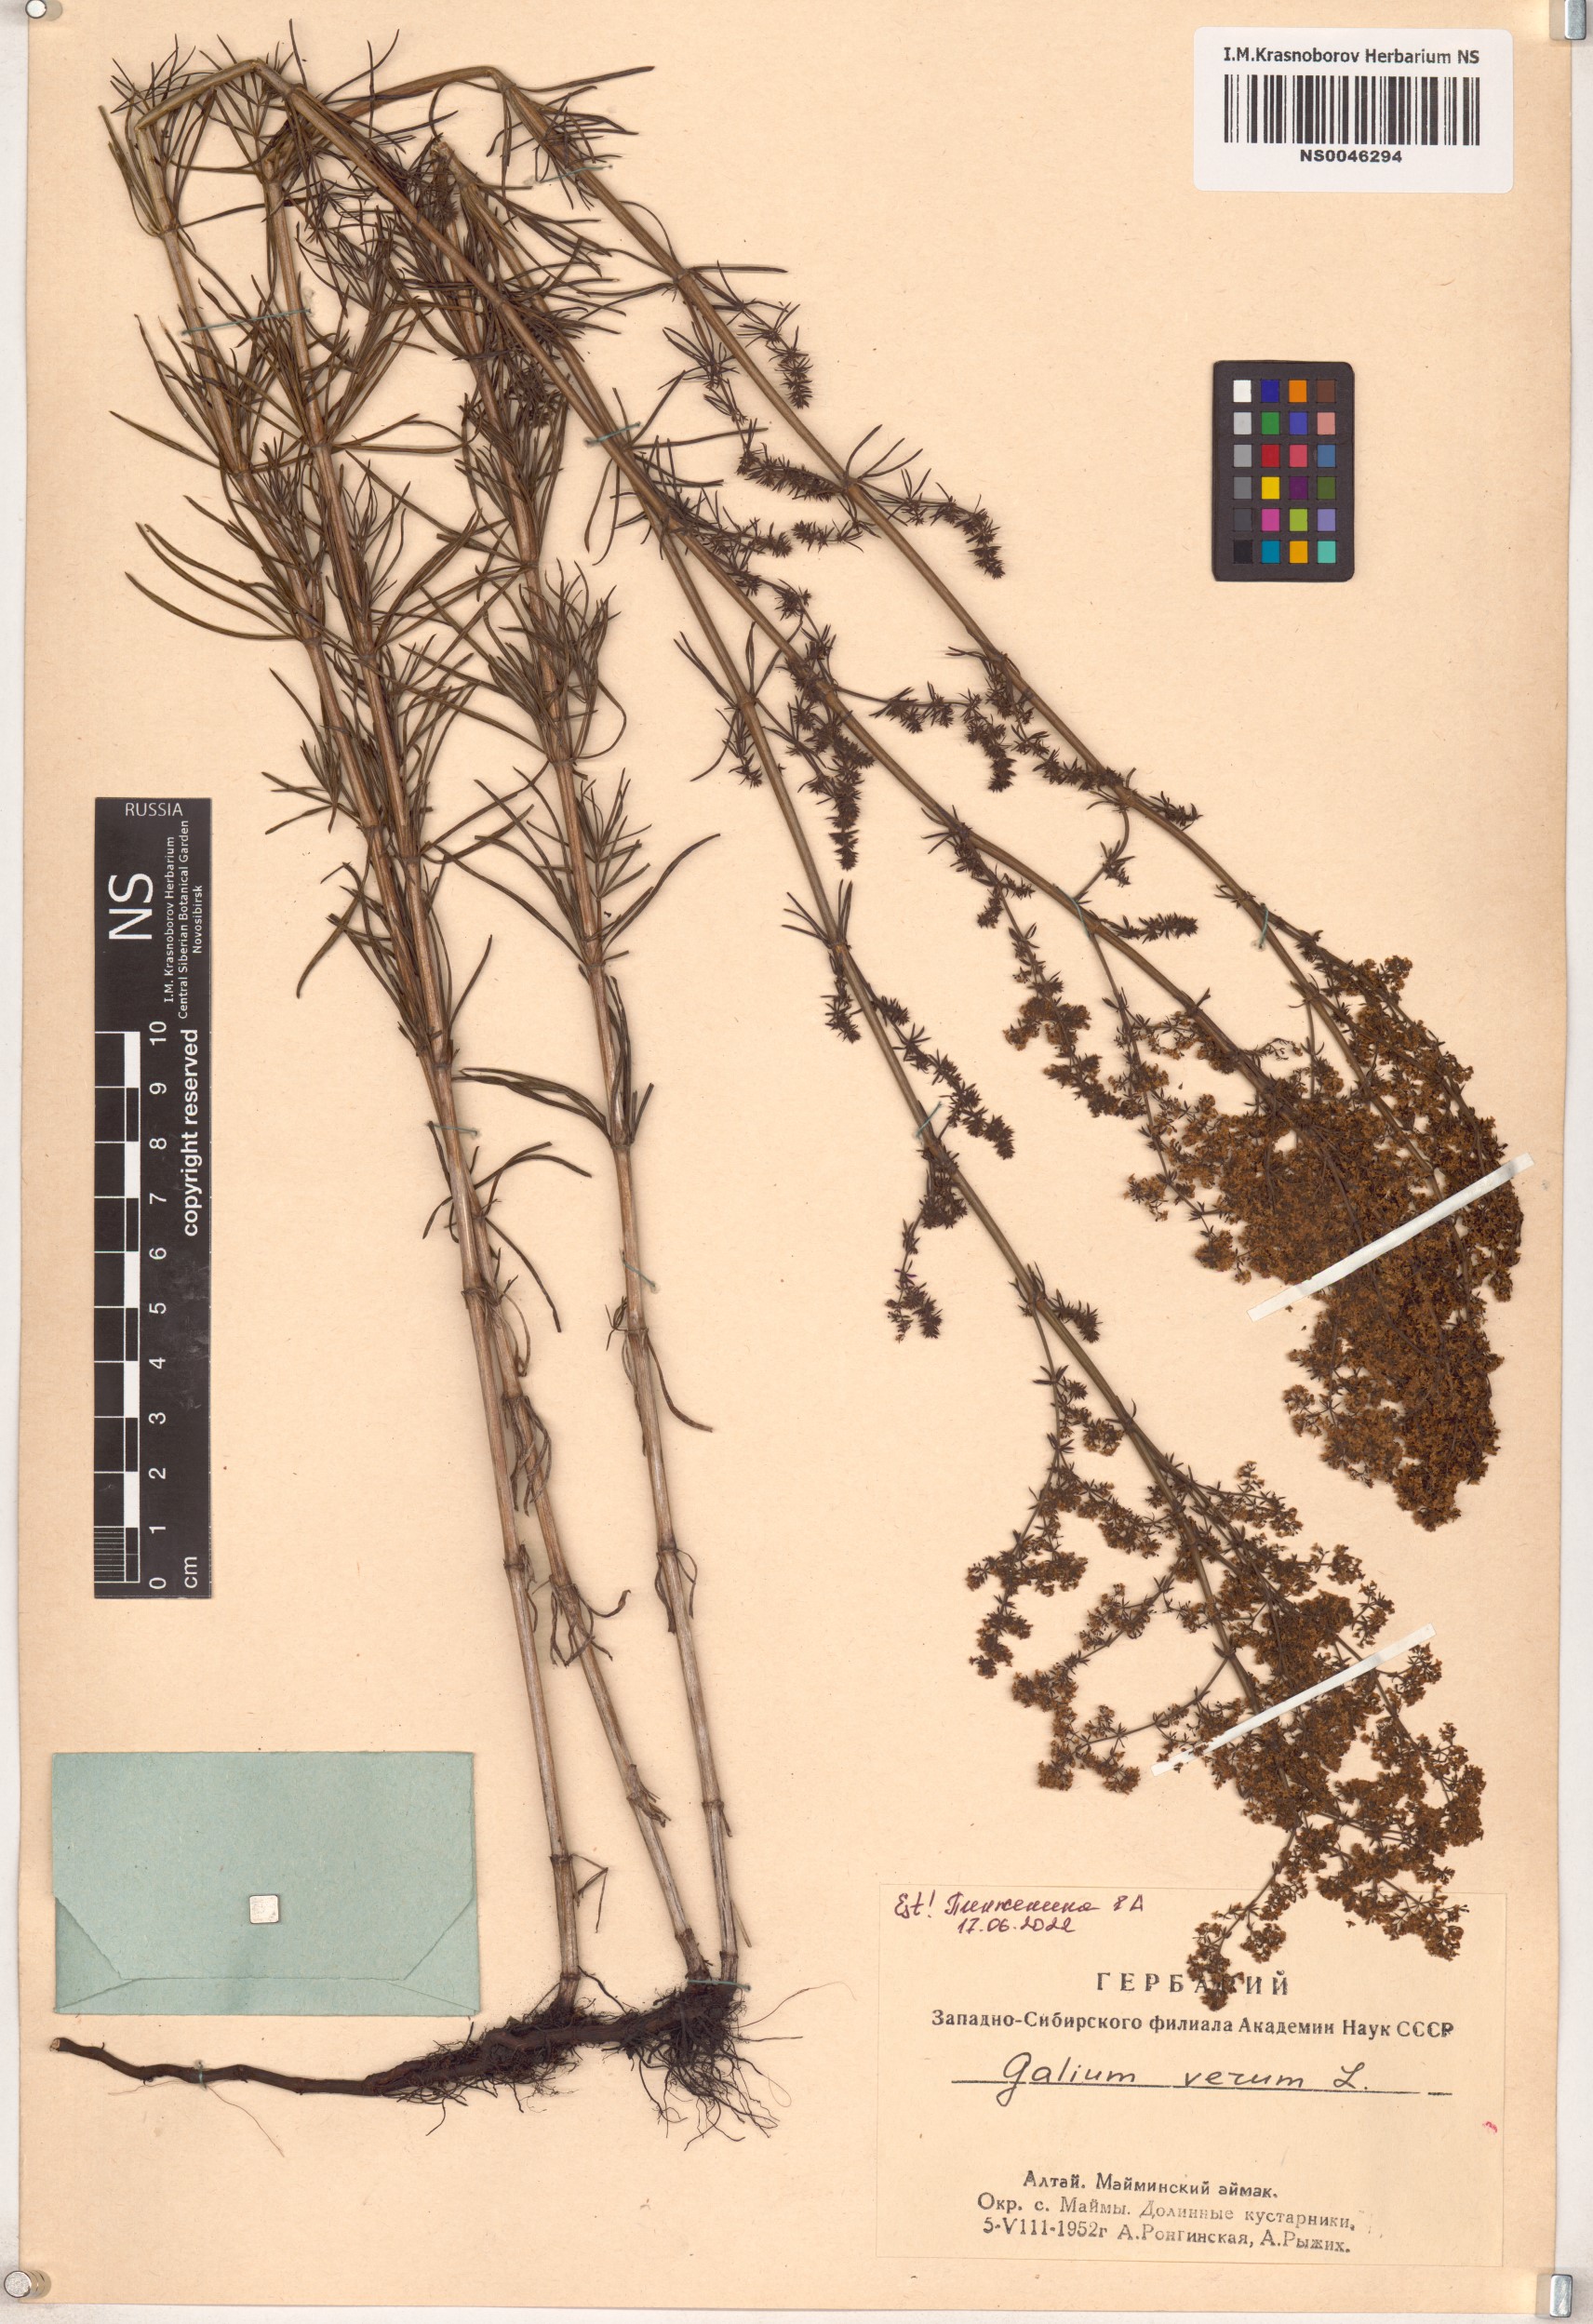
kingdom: Plantae
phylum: Tracheophyta
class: Magnoliopsida
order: Gentianales
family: Rubiaceae
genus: Galium
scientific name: Galium verum
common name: Lady's bedstraw
